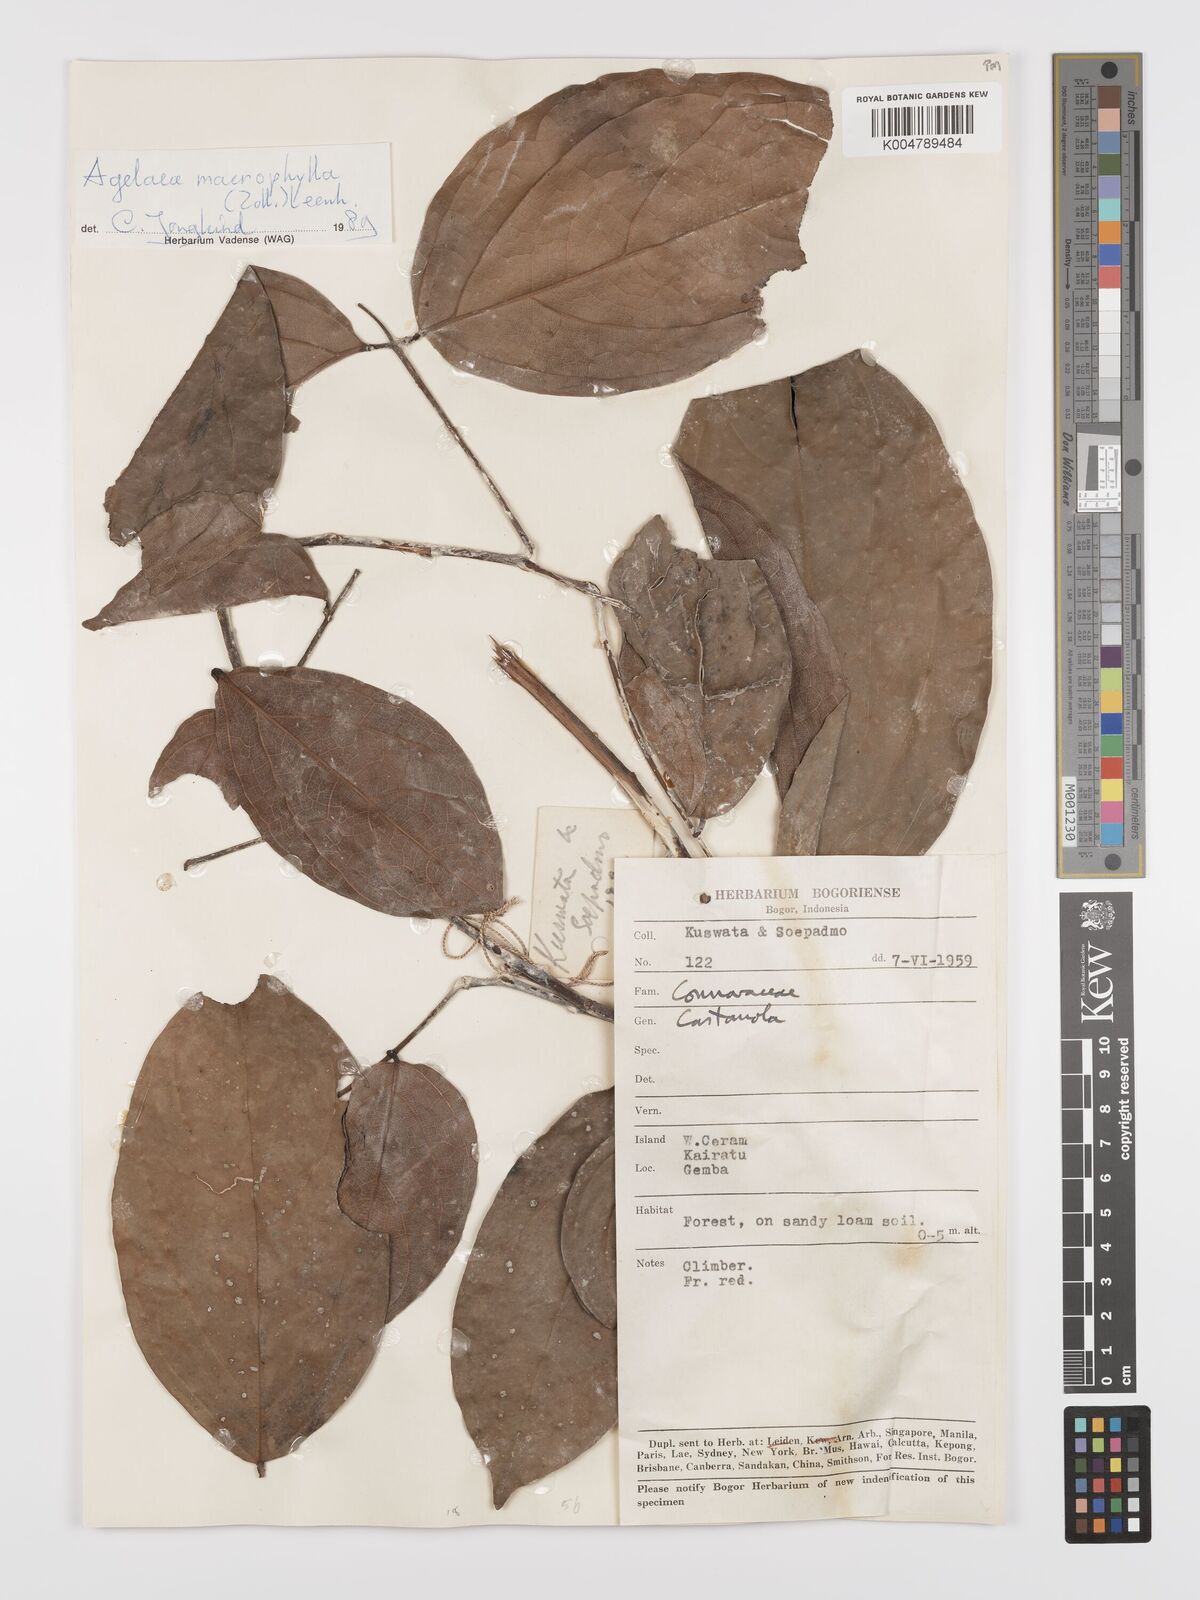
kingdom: Plantae
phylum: Tracheophyta
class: Magnoliopsida
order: Oxalidales
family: Connaraceae
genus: Agelaea
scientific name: Agelaea macrophylla
